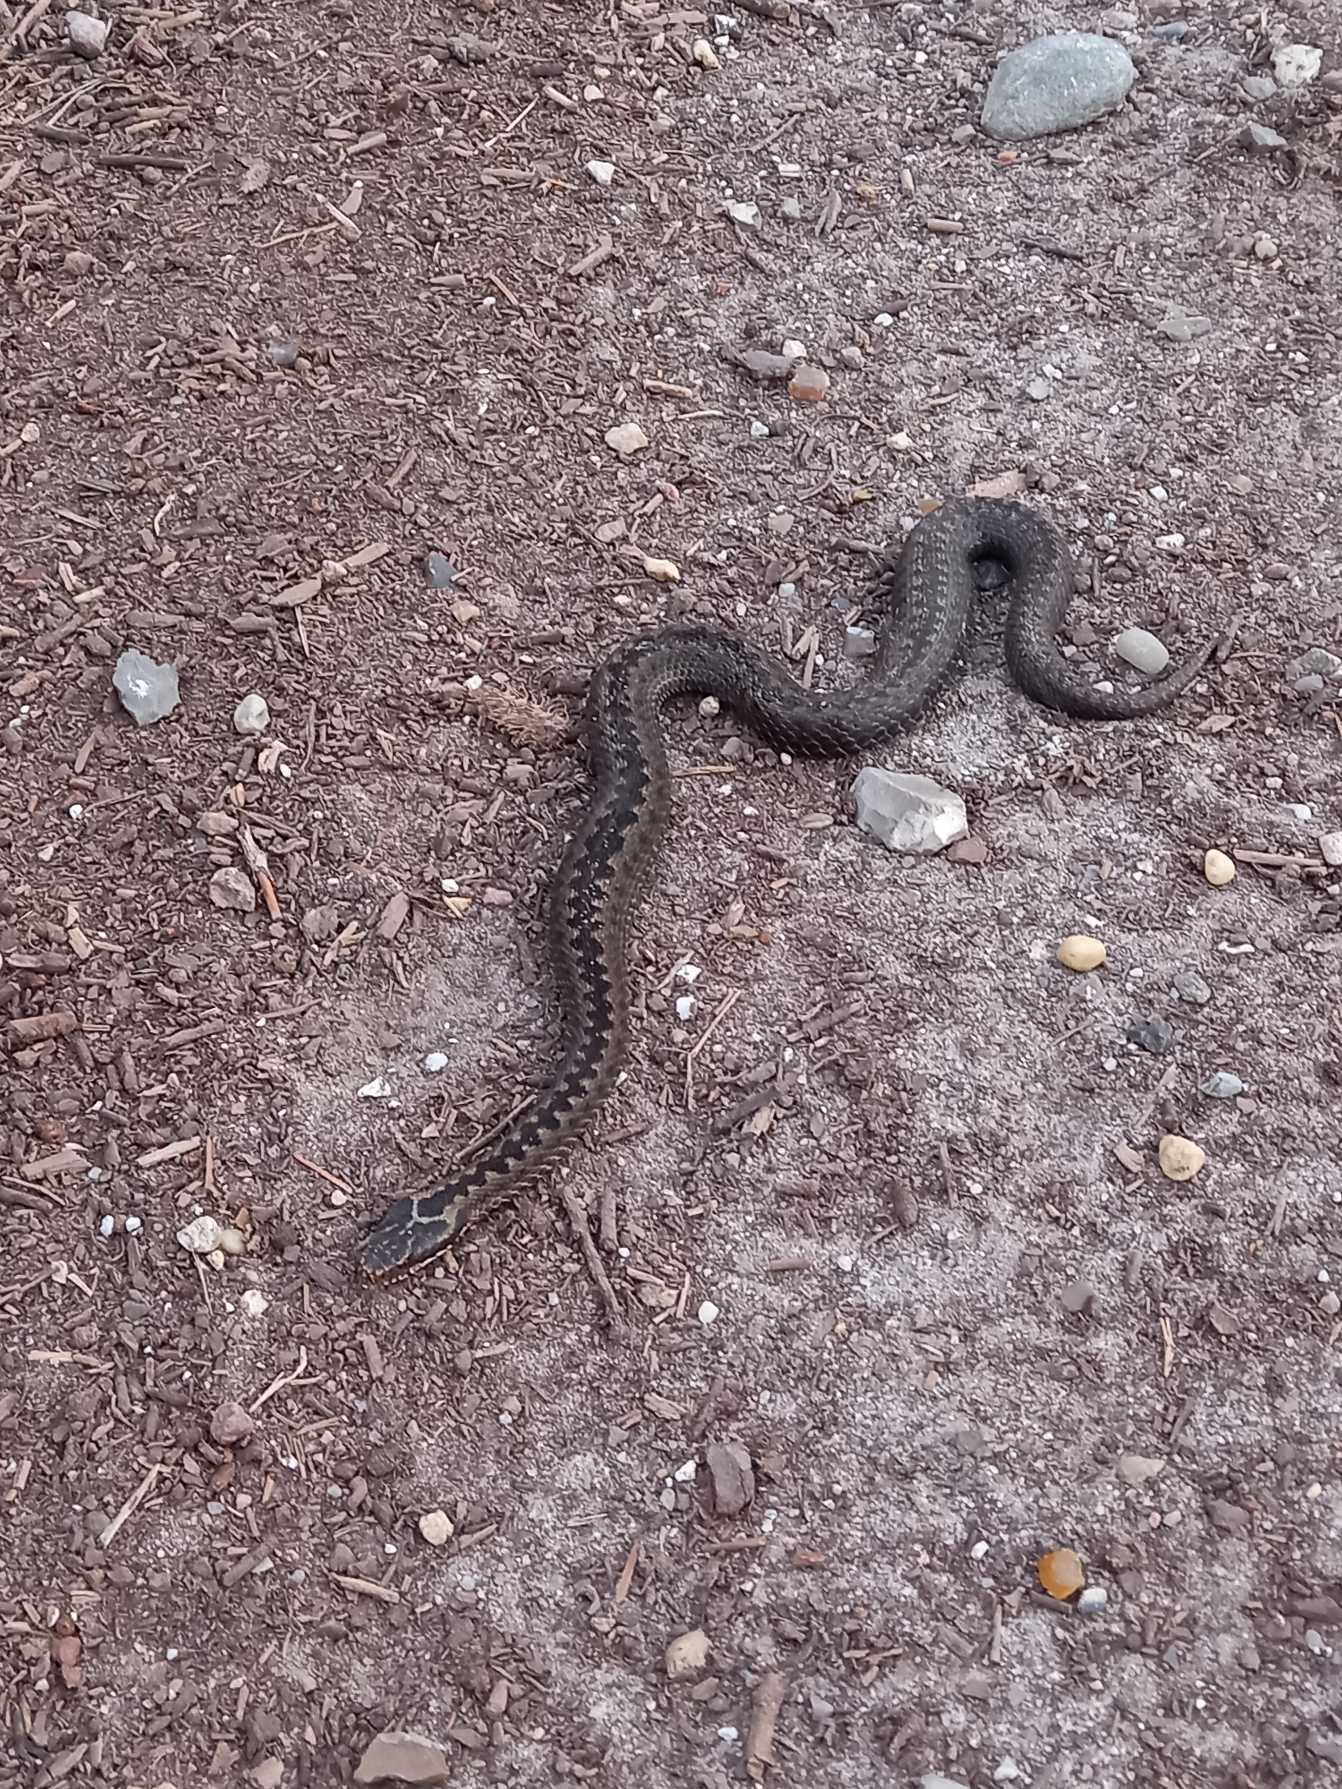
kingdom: Animalia
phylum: Chordata
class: Squamata
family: Viperidae
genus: Vipera
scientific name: Vipera berus
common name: Hugorm
